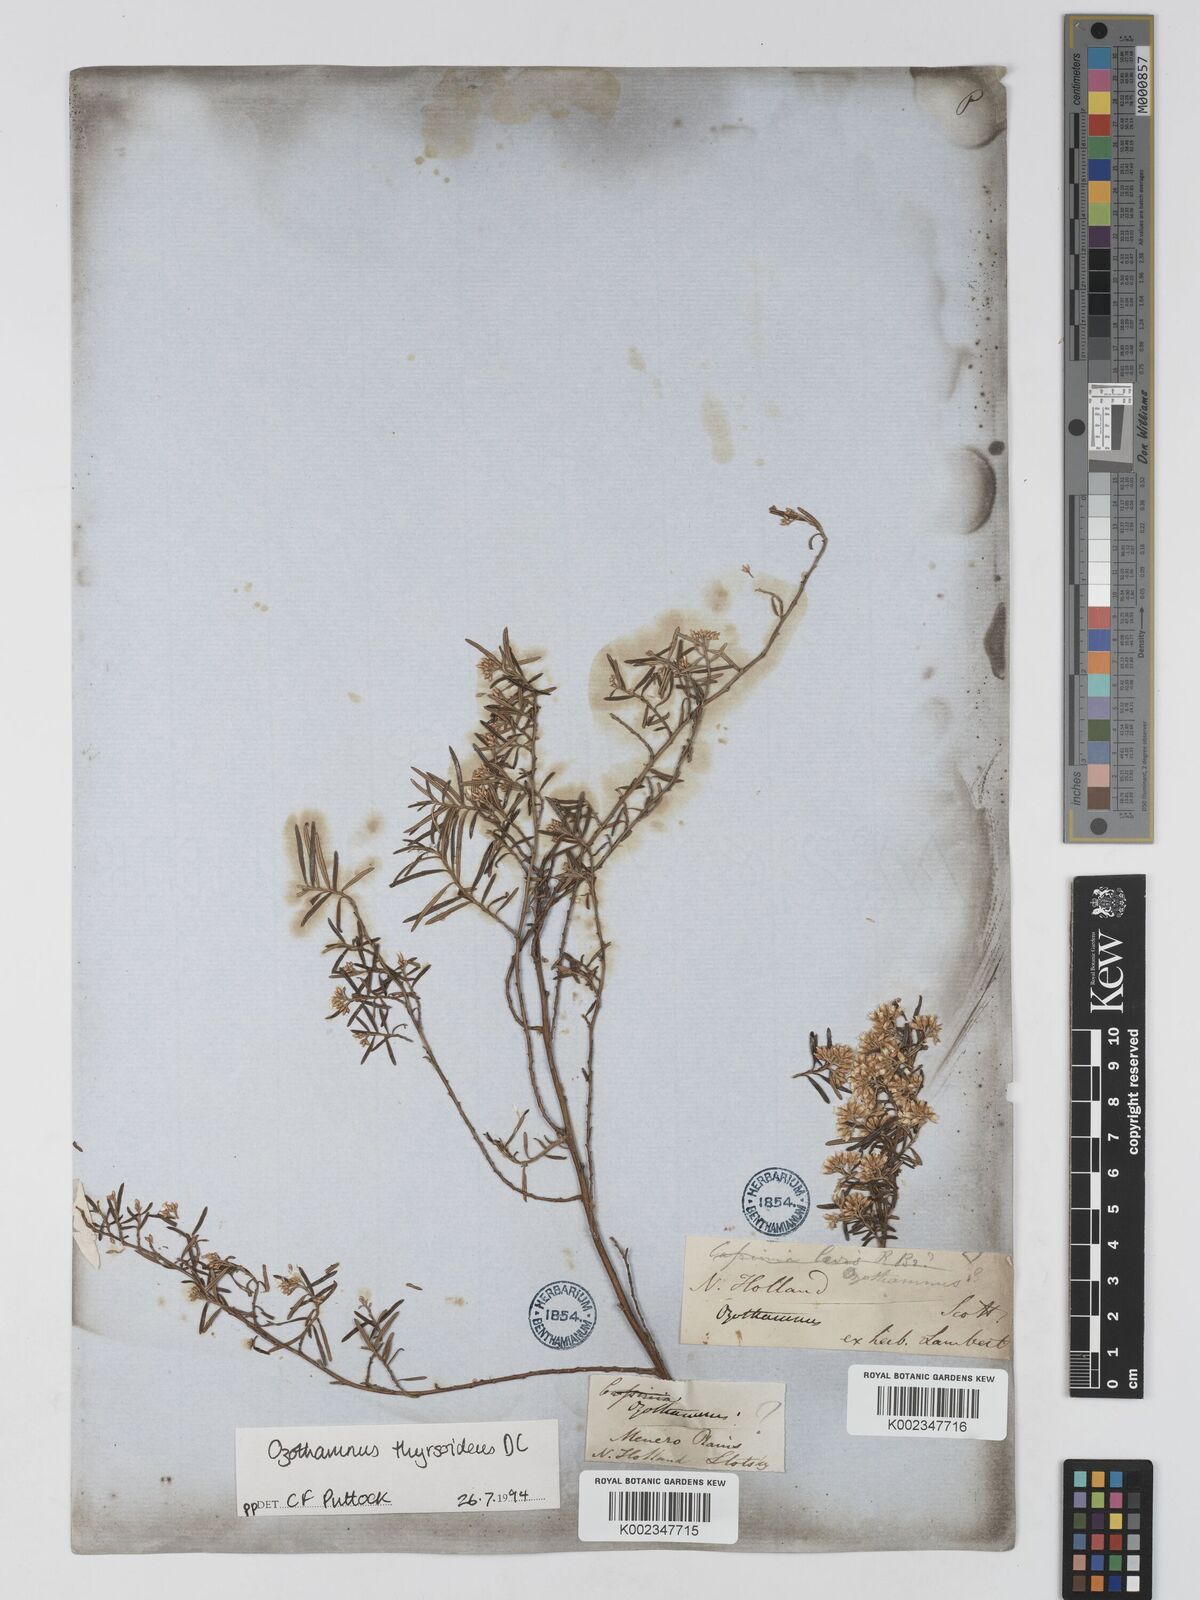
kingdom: Plantae
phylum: Tracheophyta
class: Magnoliopsida
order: Asterales
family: Asteraceae
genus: Ozothamnus
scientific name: Ozothamnus thyrsoideus
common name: Snow-in-summer
